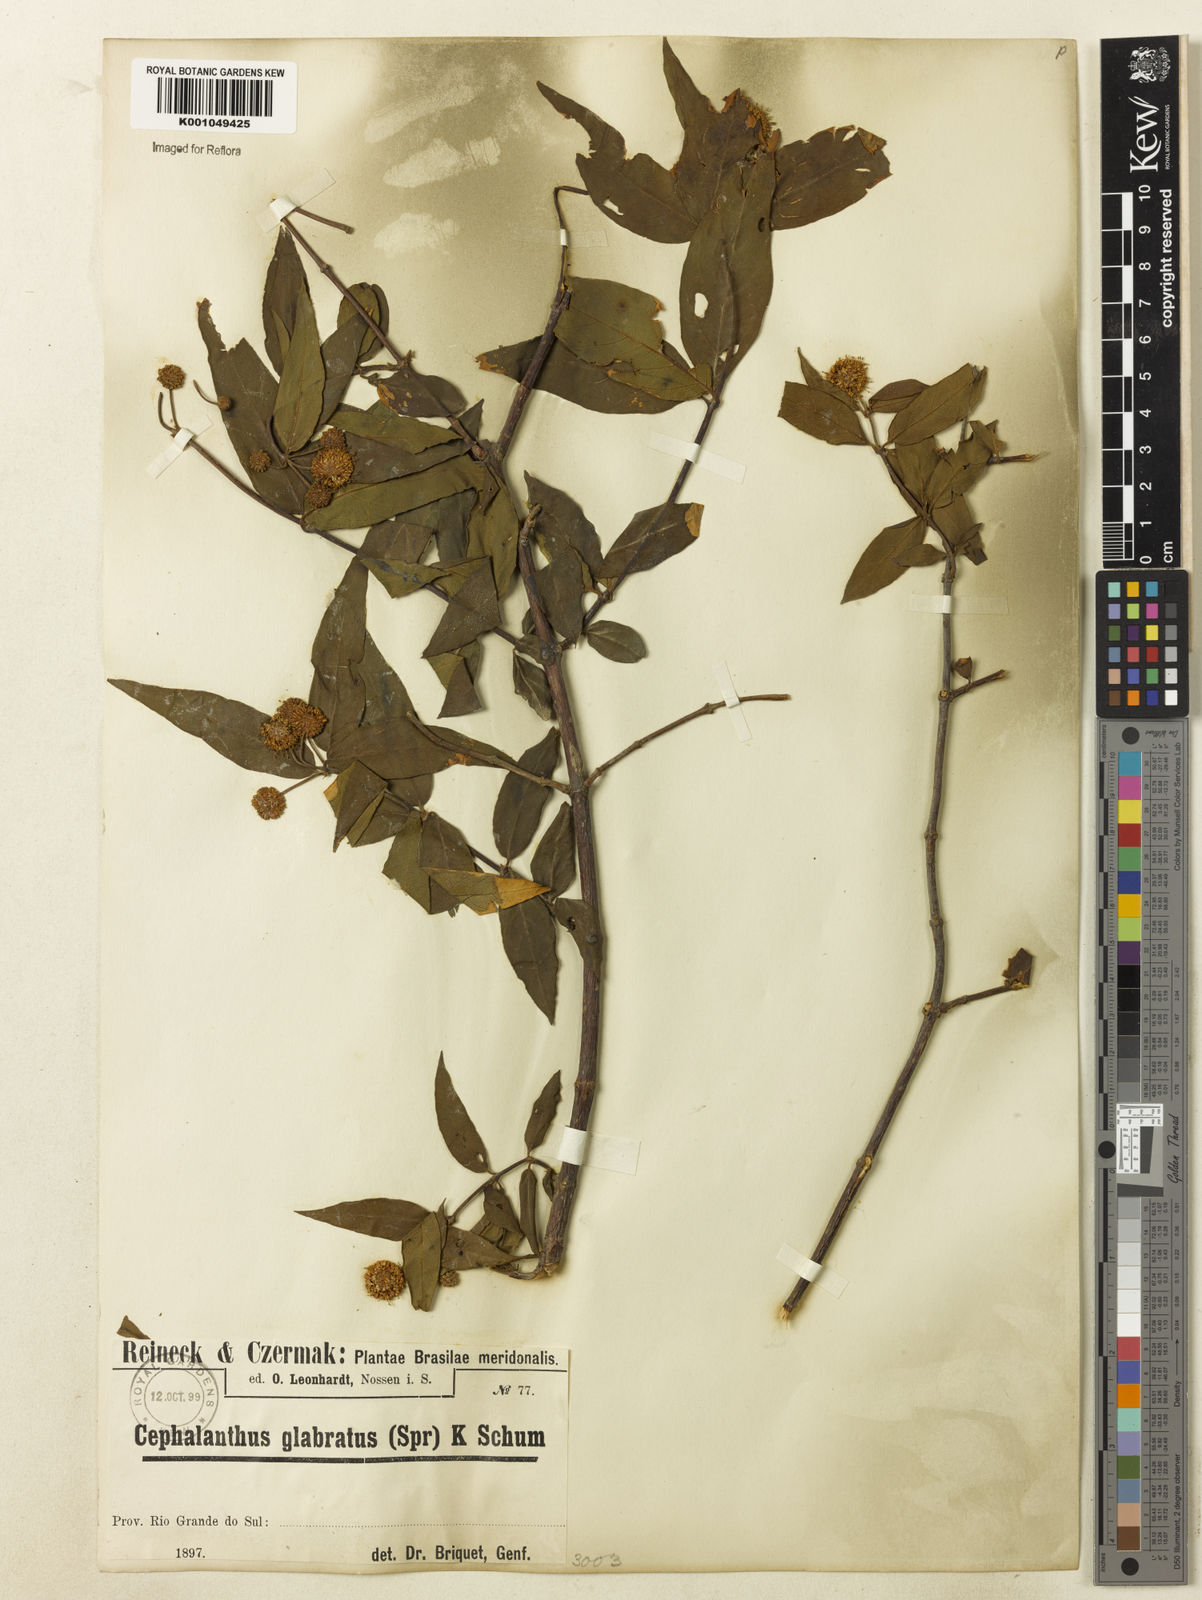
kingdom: Plantae
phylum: Tracheophyta
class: Magnoliopsida
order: Gentianales
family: Rubiaceae
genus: Cephalanthus
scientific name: Cephalanthus glabratus
